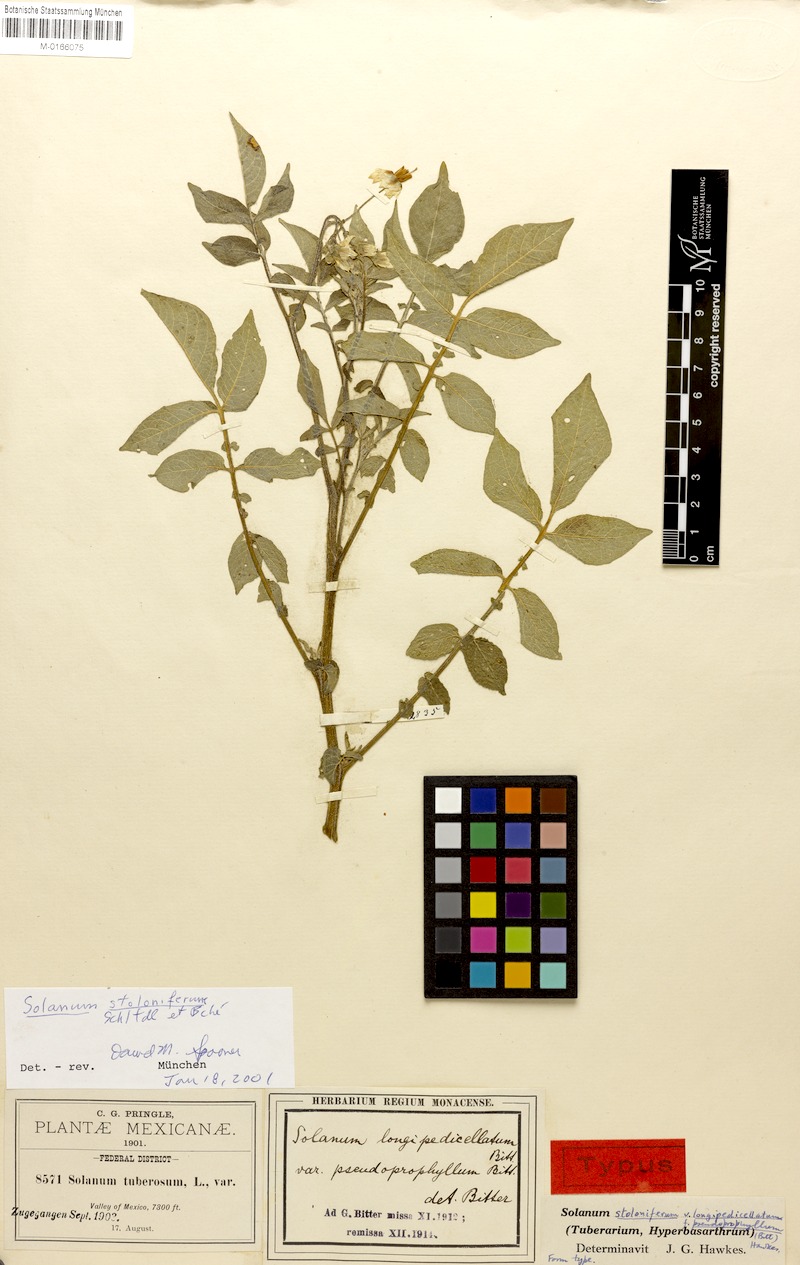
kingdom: Plantae
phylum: Tracheophyta
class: Magnoliopsida
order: Solanales
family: Solanaceae
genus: Solanum
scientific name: Solanum stoloniferum
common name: Fendler's nighshade
